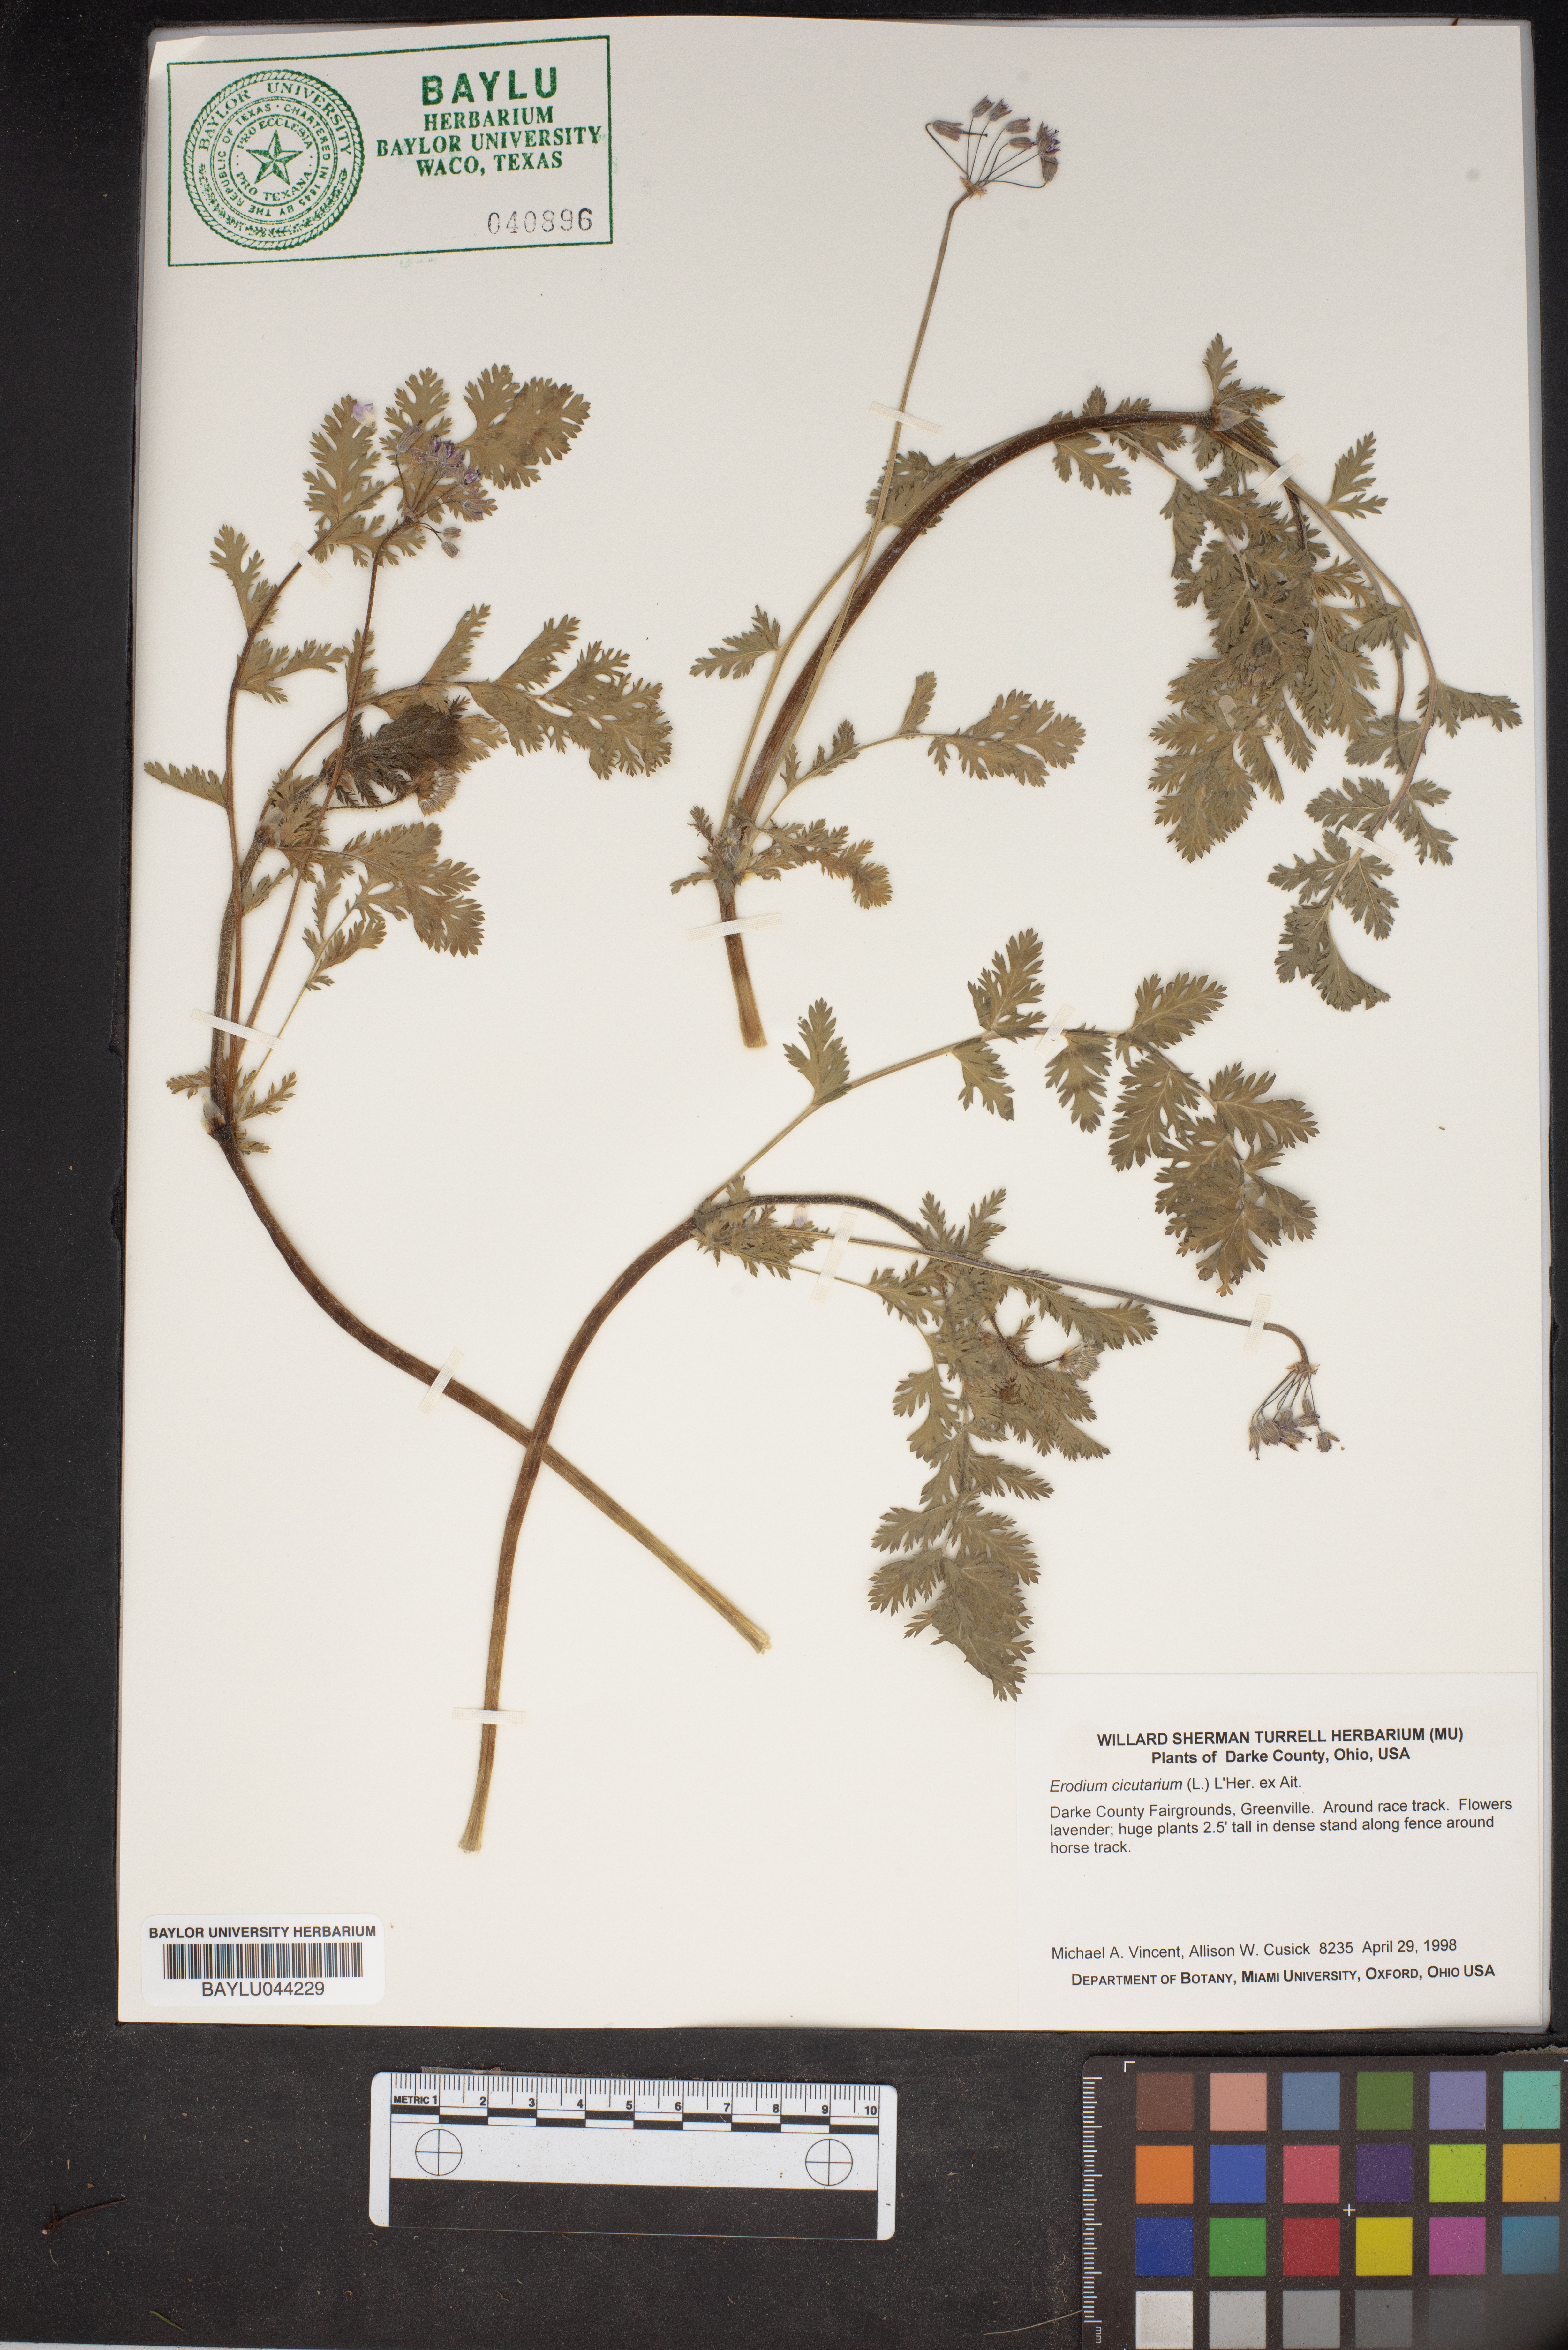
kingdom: Plantae
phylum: Tracheophyta
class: Magnoliopsida
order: Geraniales
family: Geraniaceae
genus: Erodium
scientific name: Erodium cicutarium
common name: Common stork's-bill
